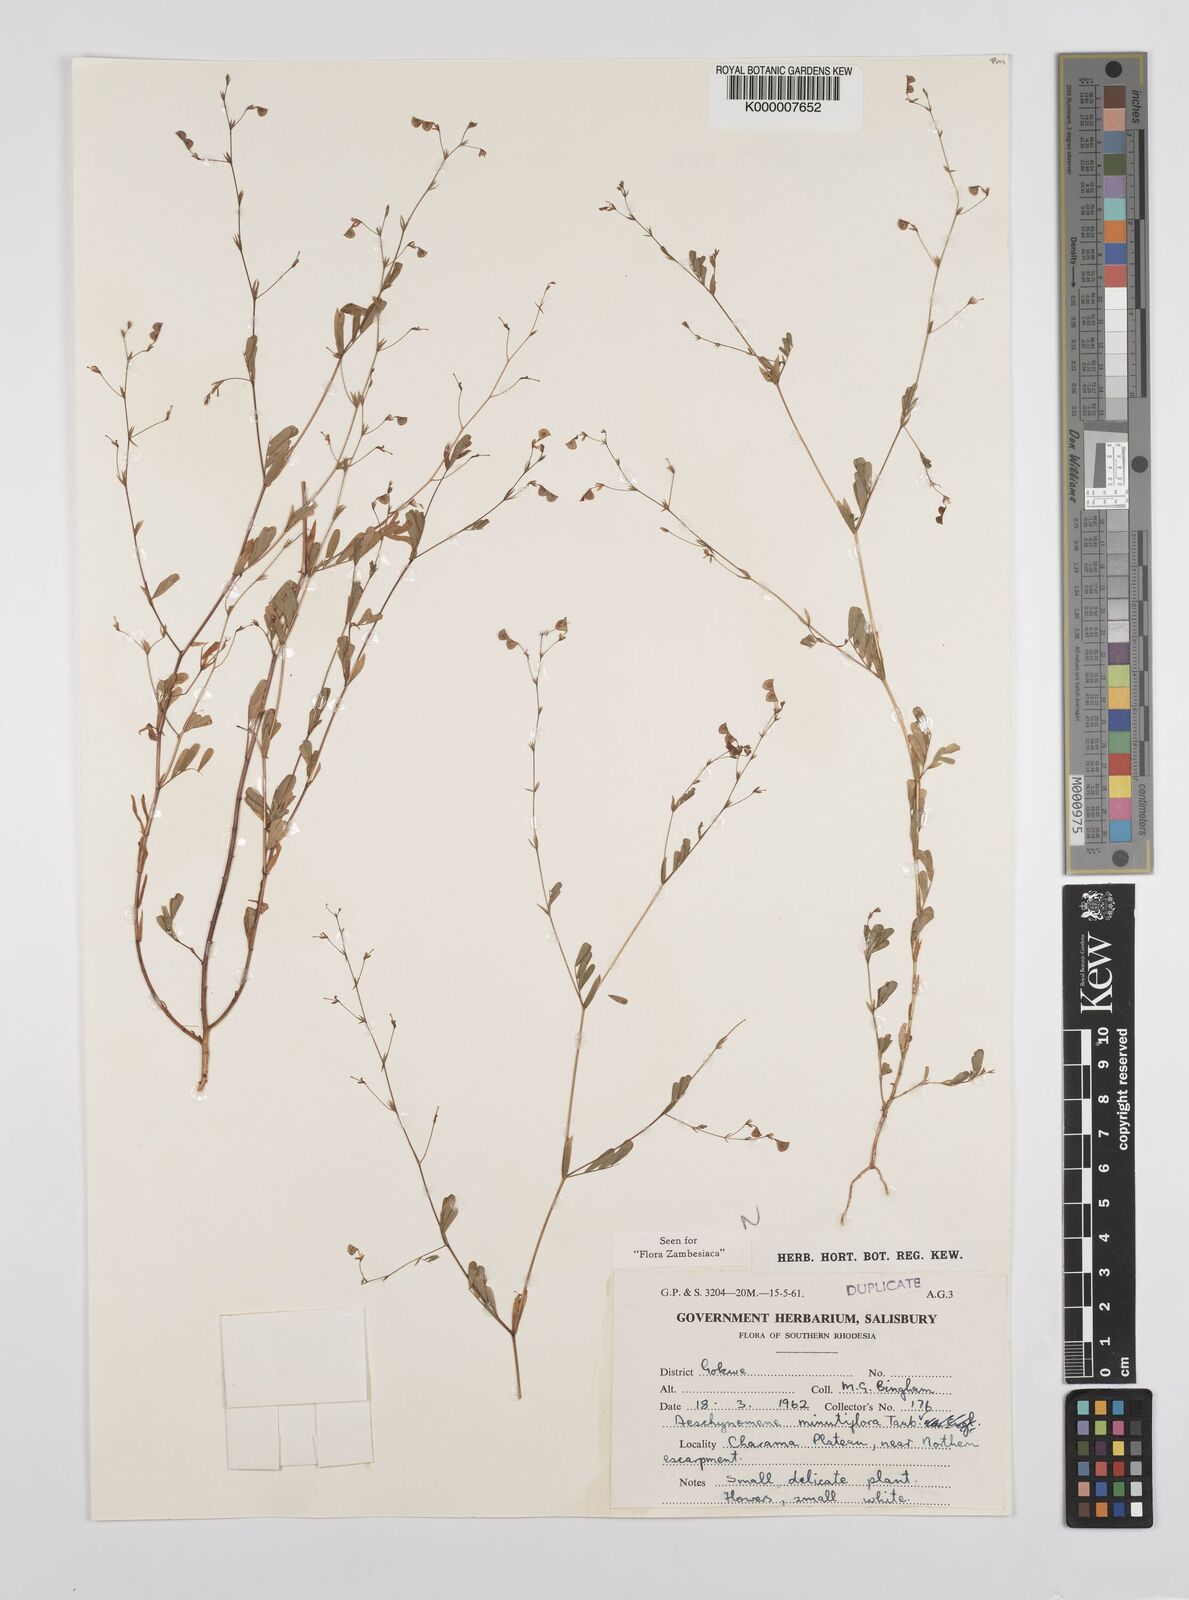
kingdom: Plantae
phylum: Tracheophyta
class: Magnoliopsida
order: Fabales
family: Fabaceae
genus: Aeschynomene
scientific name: Aeschynomene minutiflora
